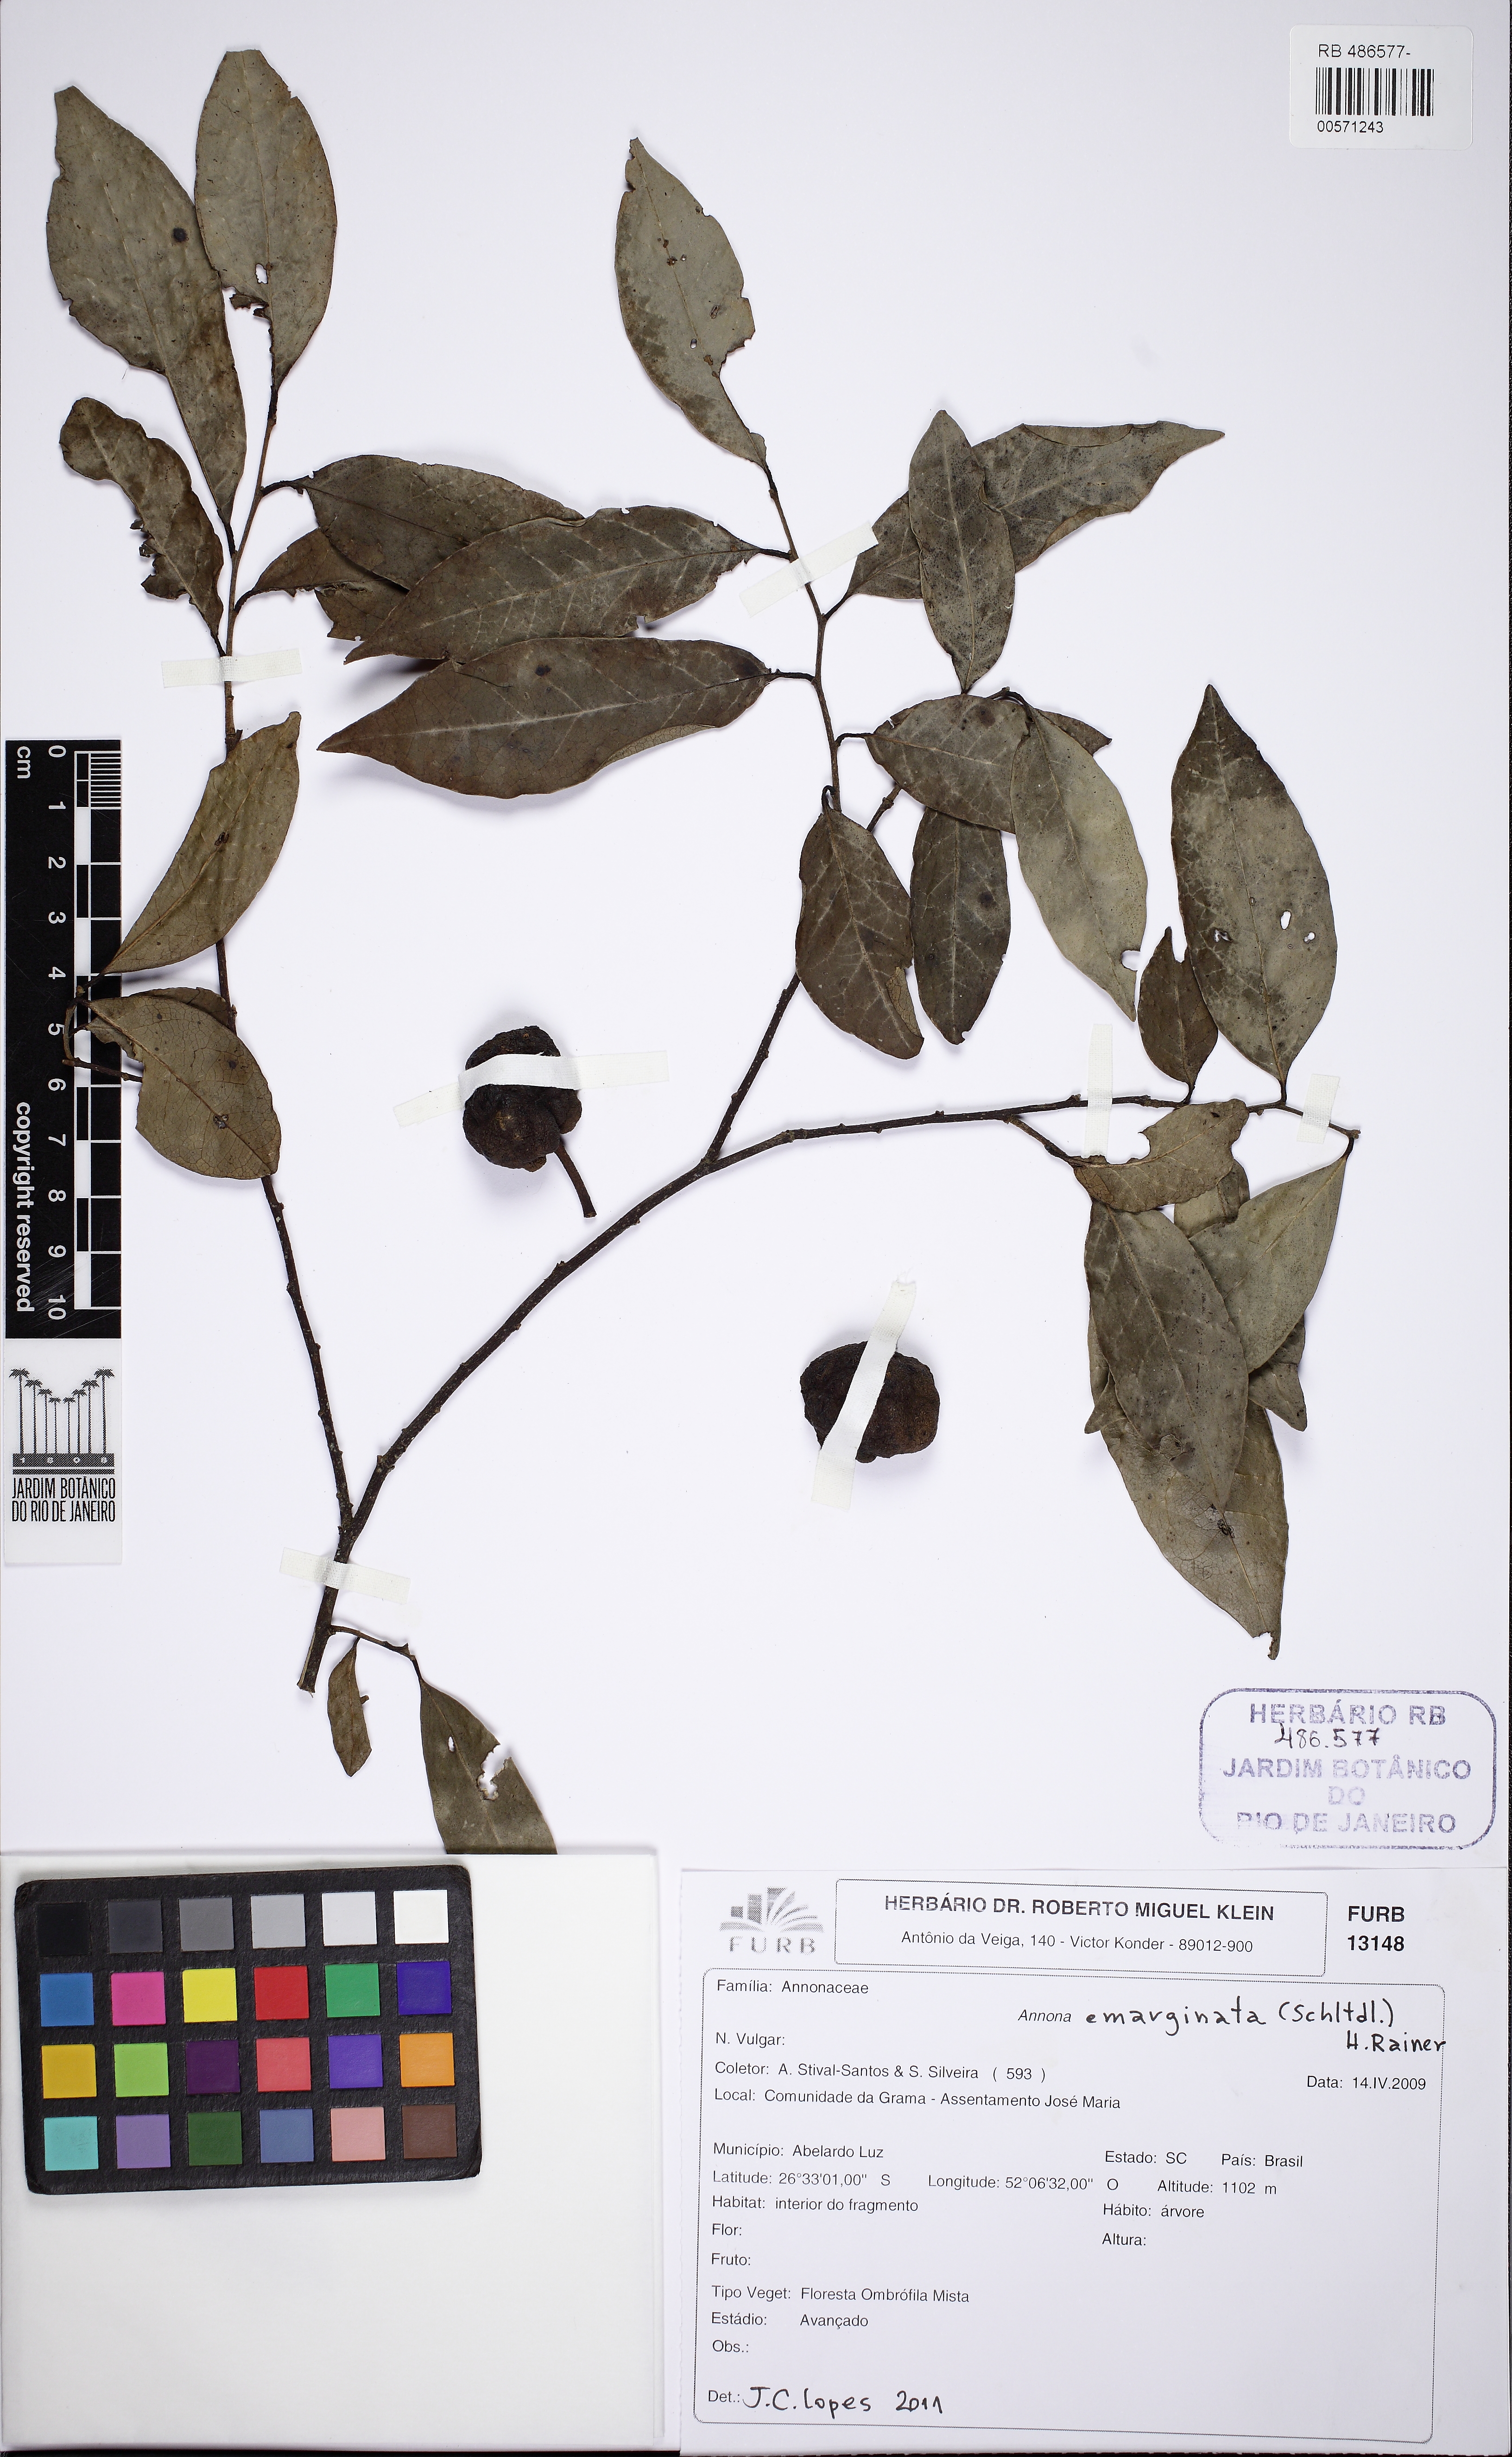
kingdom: Plantae
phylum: Tracheophyta
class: Magnoliopsida
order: Magnoliales
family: Annonaceae
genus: Annona
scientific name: Annona emarginata
